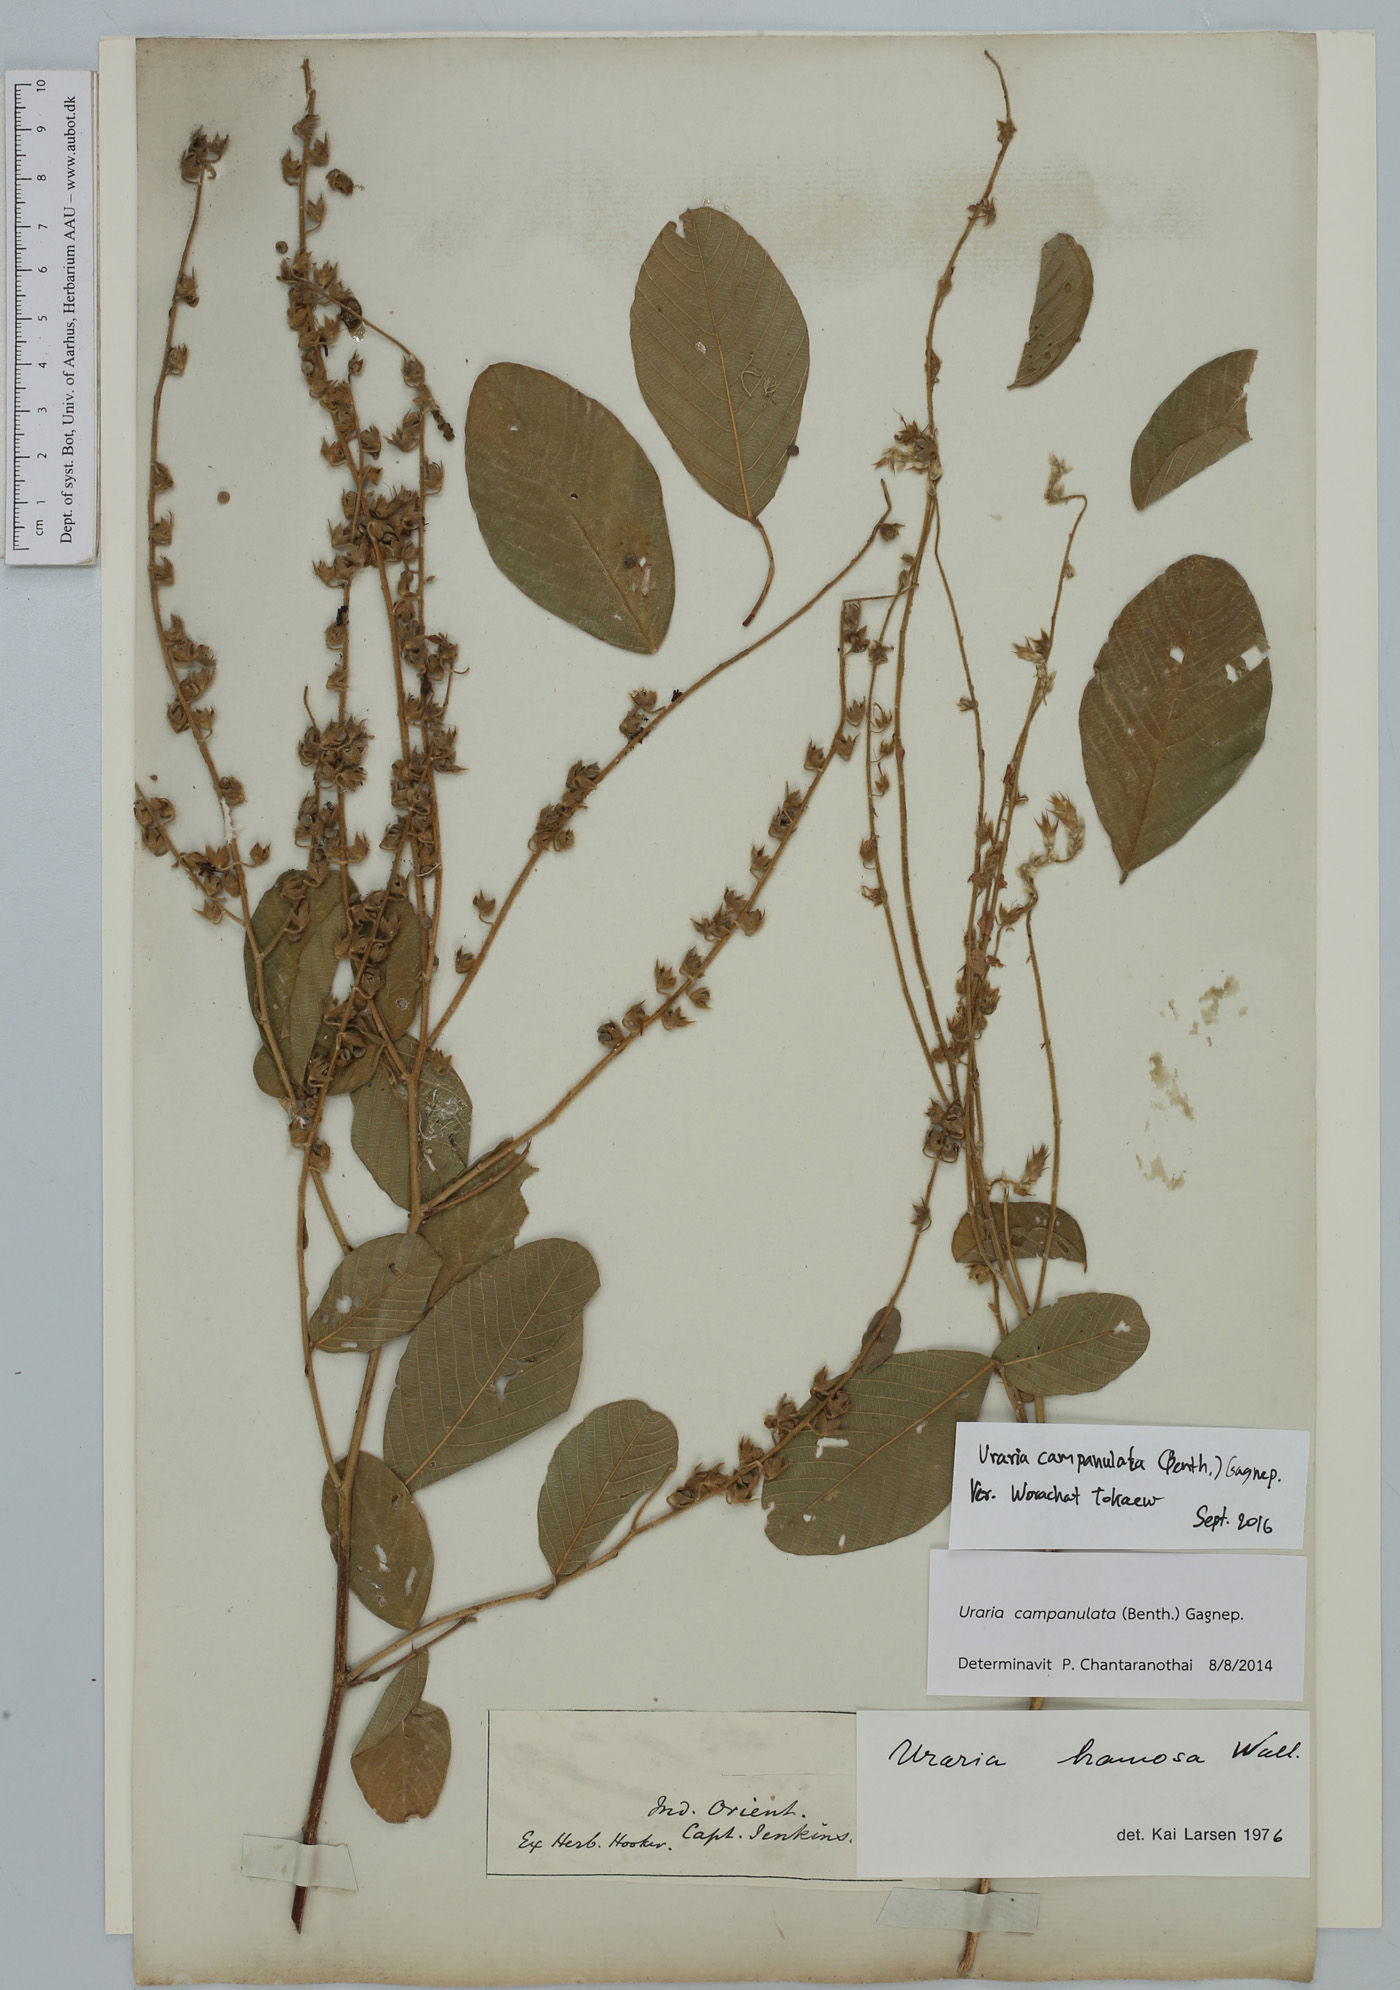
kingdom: Plantae
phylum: Tracheophyta
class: Magnoliopsida
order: Fabales
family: Fabaceae
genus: Uraria
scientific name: Uraria campanulata
